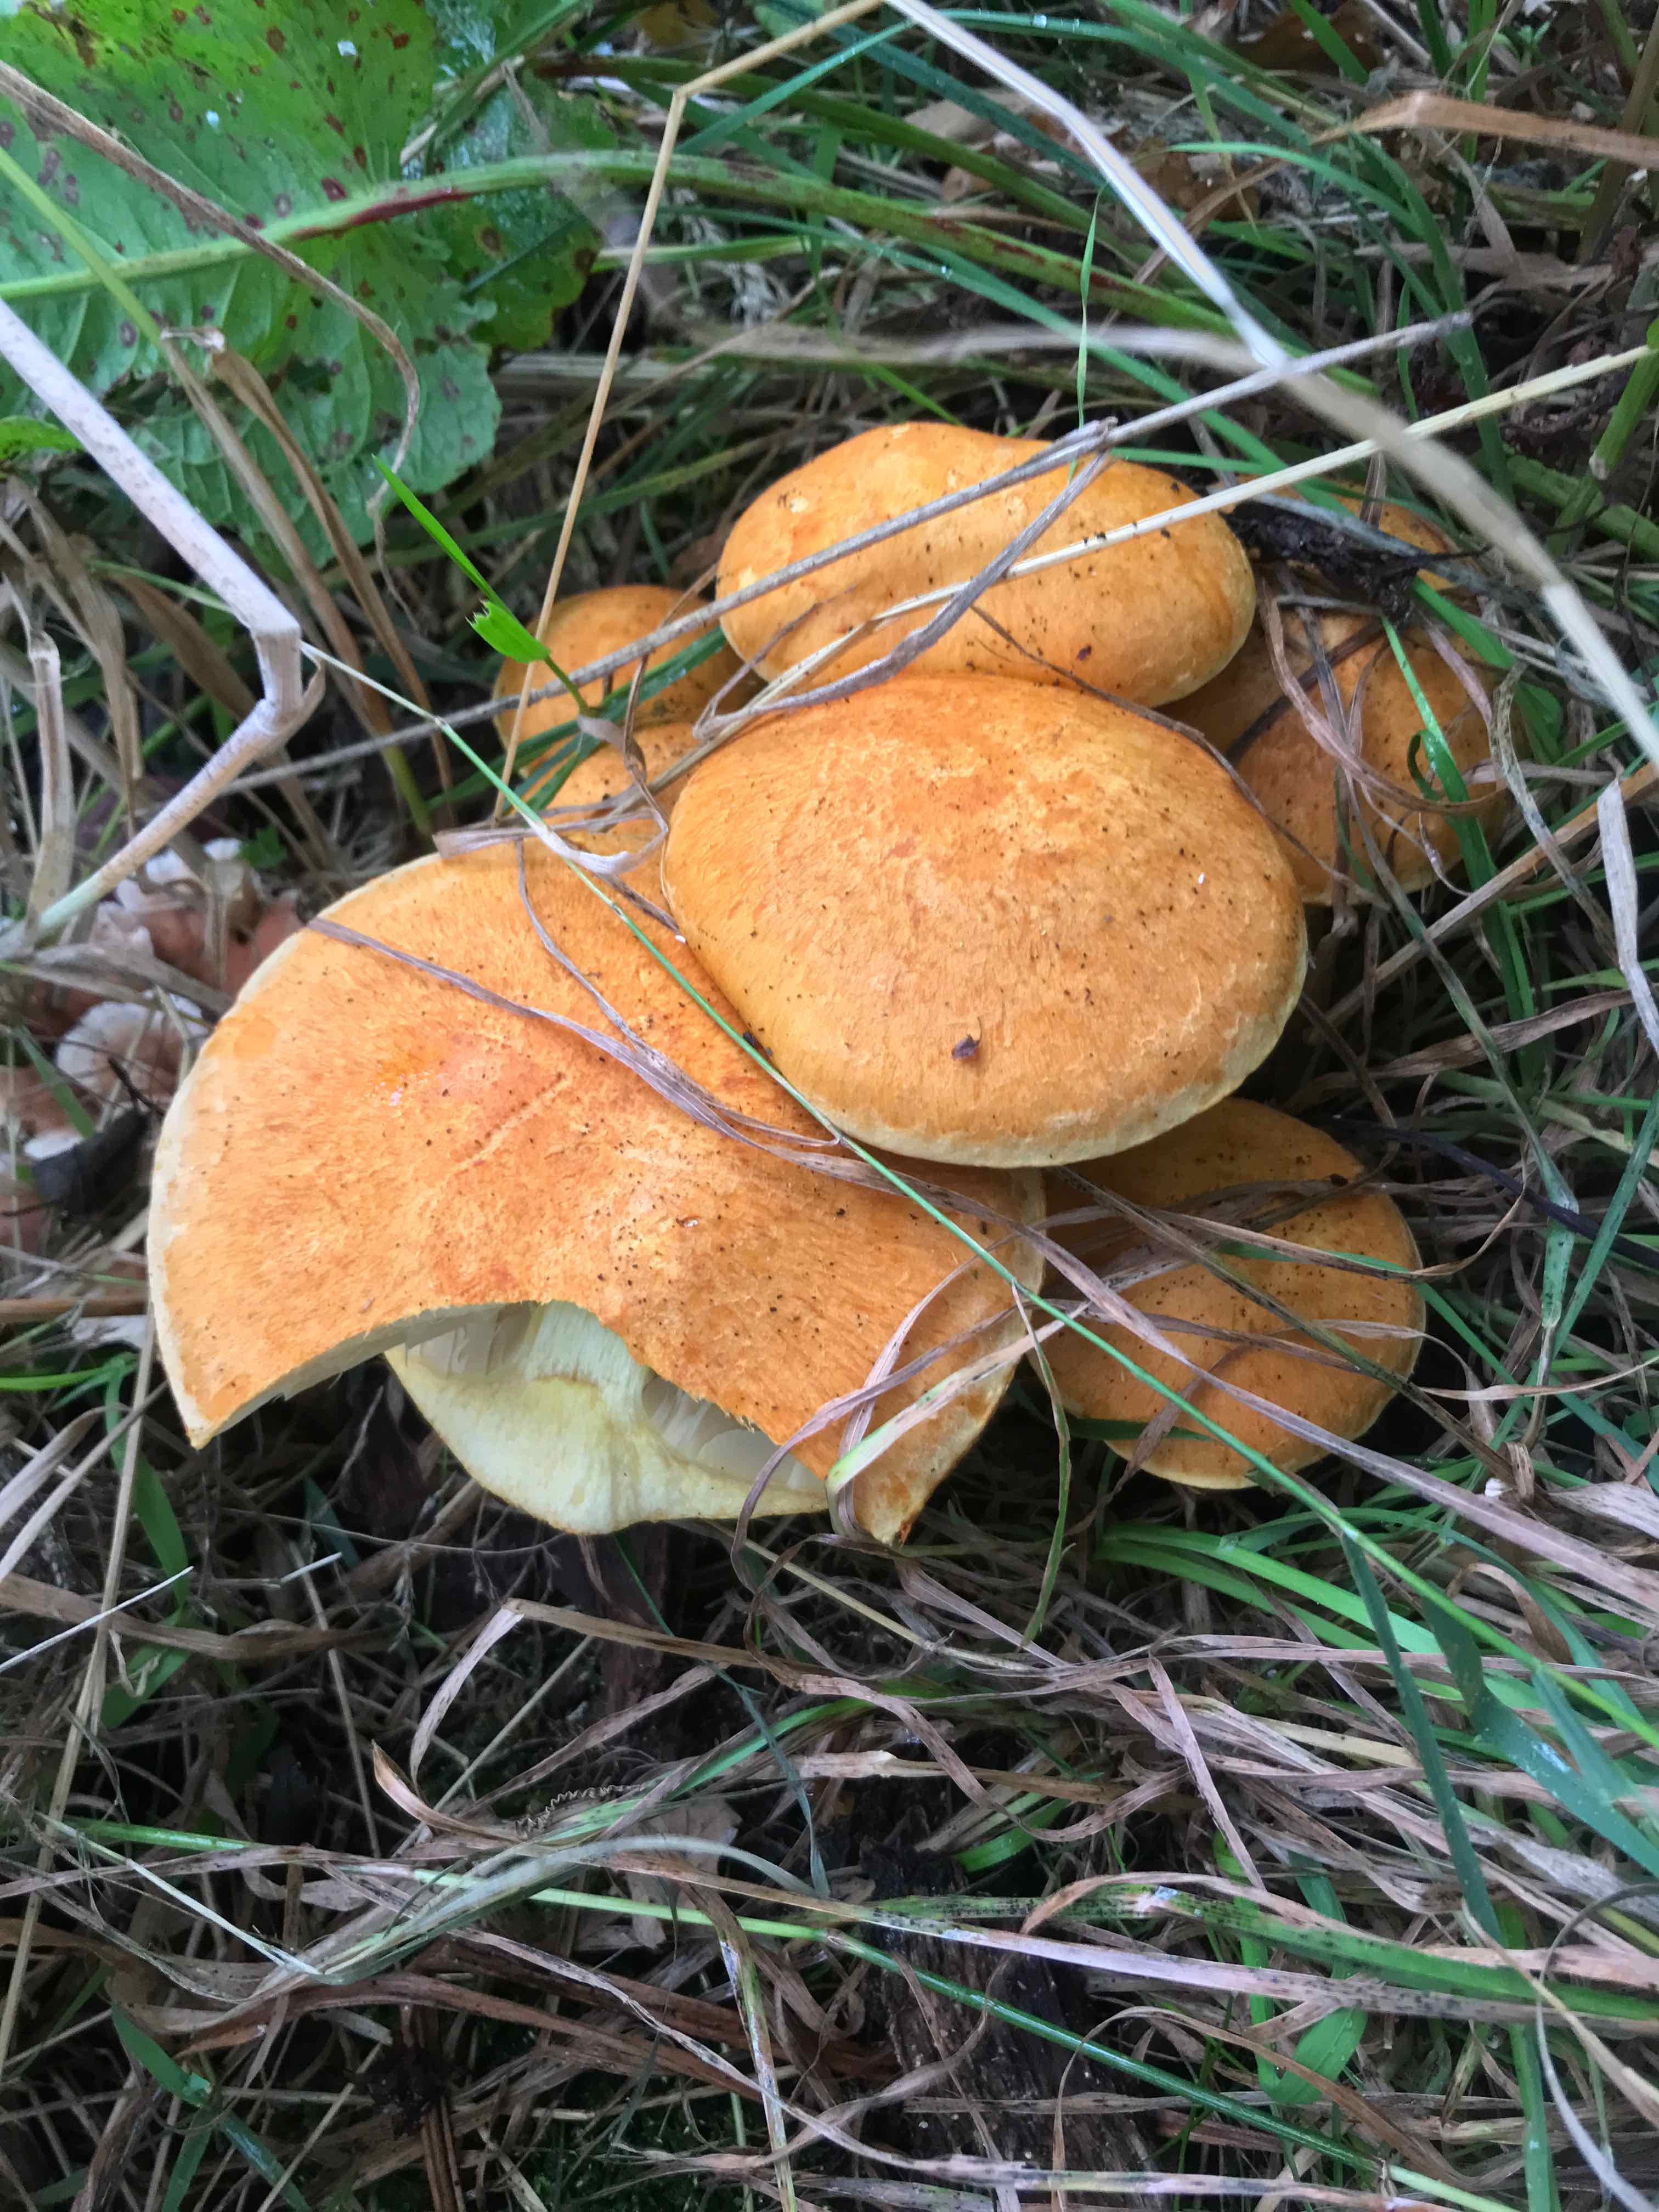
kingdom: Fungi
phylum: Basidiomycota
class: Agaricomycetes
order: Agaricales
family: Hymenogastraceae
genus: Gymnopilus
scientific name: Gymnopilus spectabilis
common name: fibret flammehat
